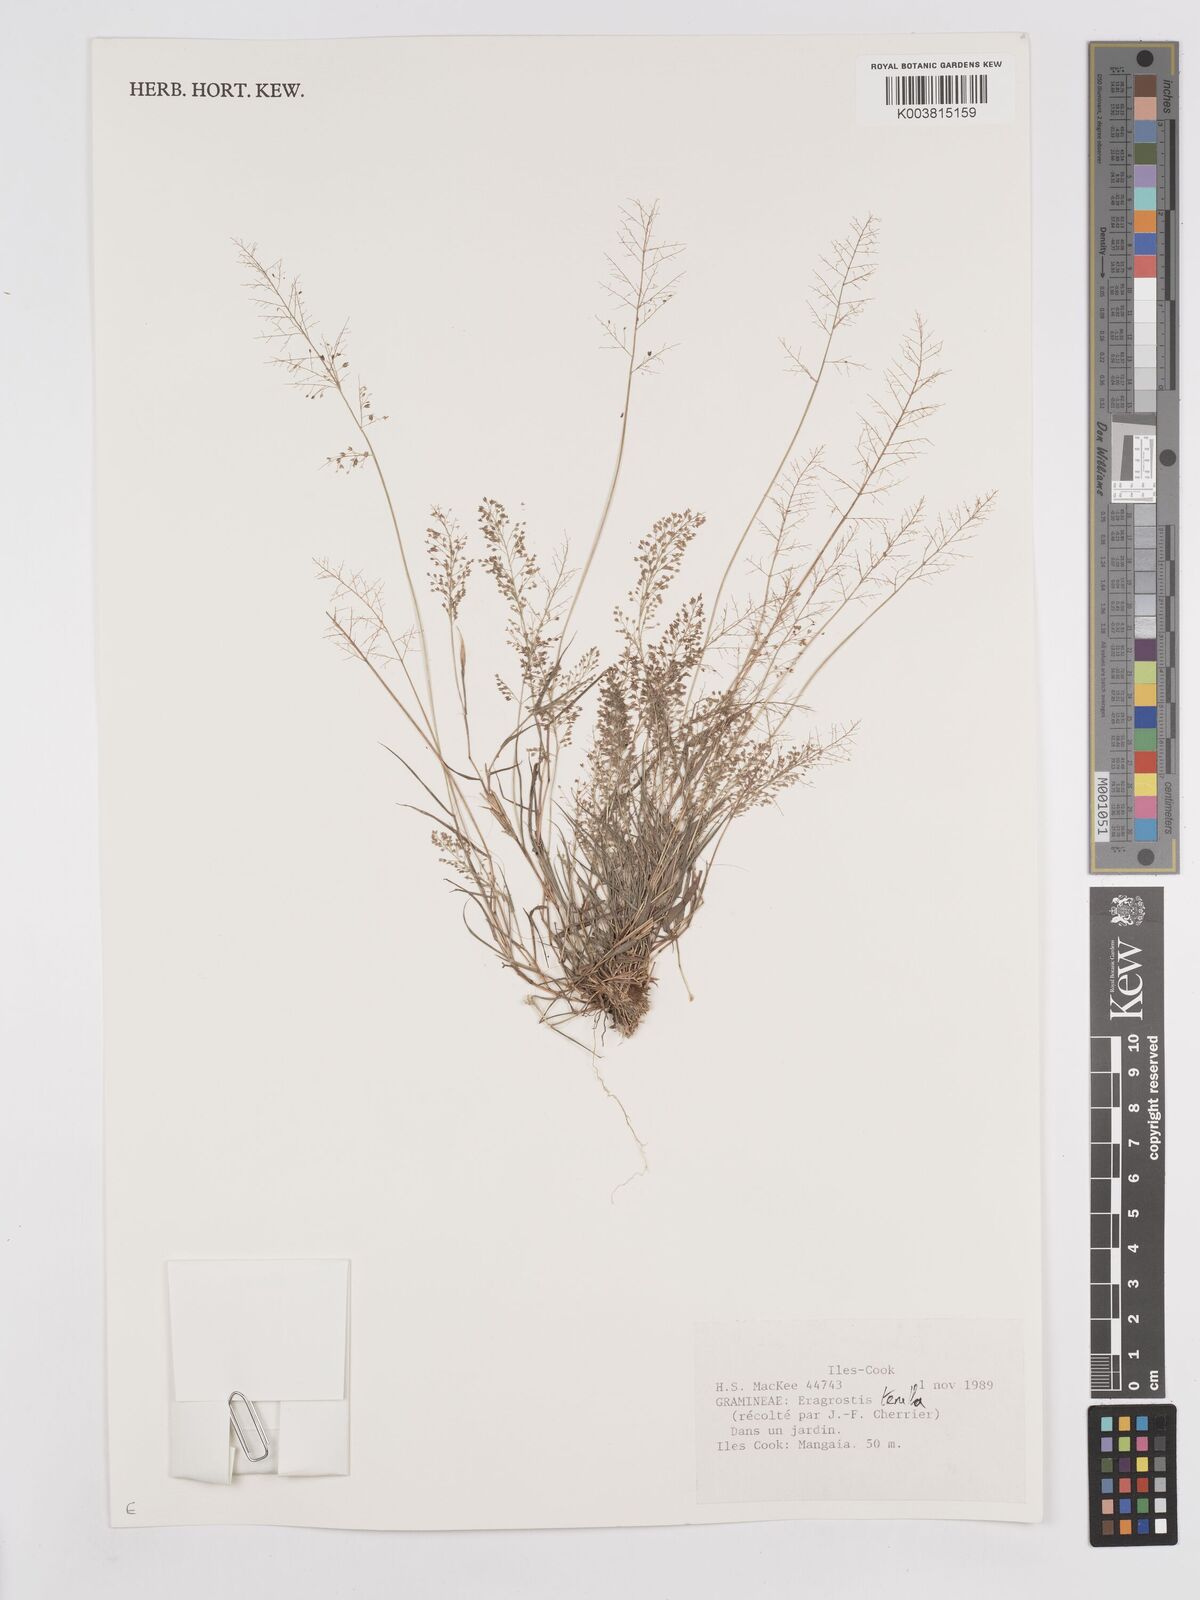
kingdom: Plantae
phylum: Tracheophyta
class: Liliopsida
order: Poales
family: Poaceae
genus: Eragrostis
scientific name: Eragrostis tenella
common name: Japanese lovegrass
